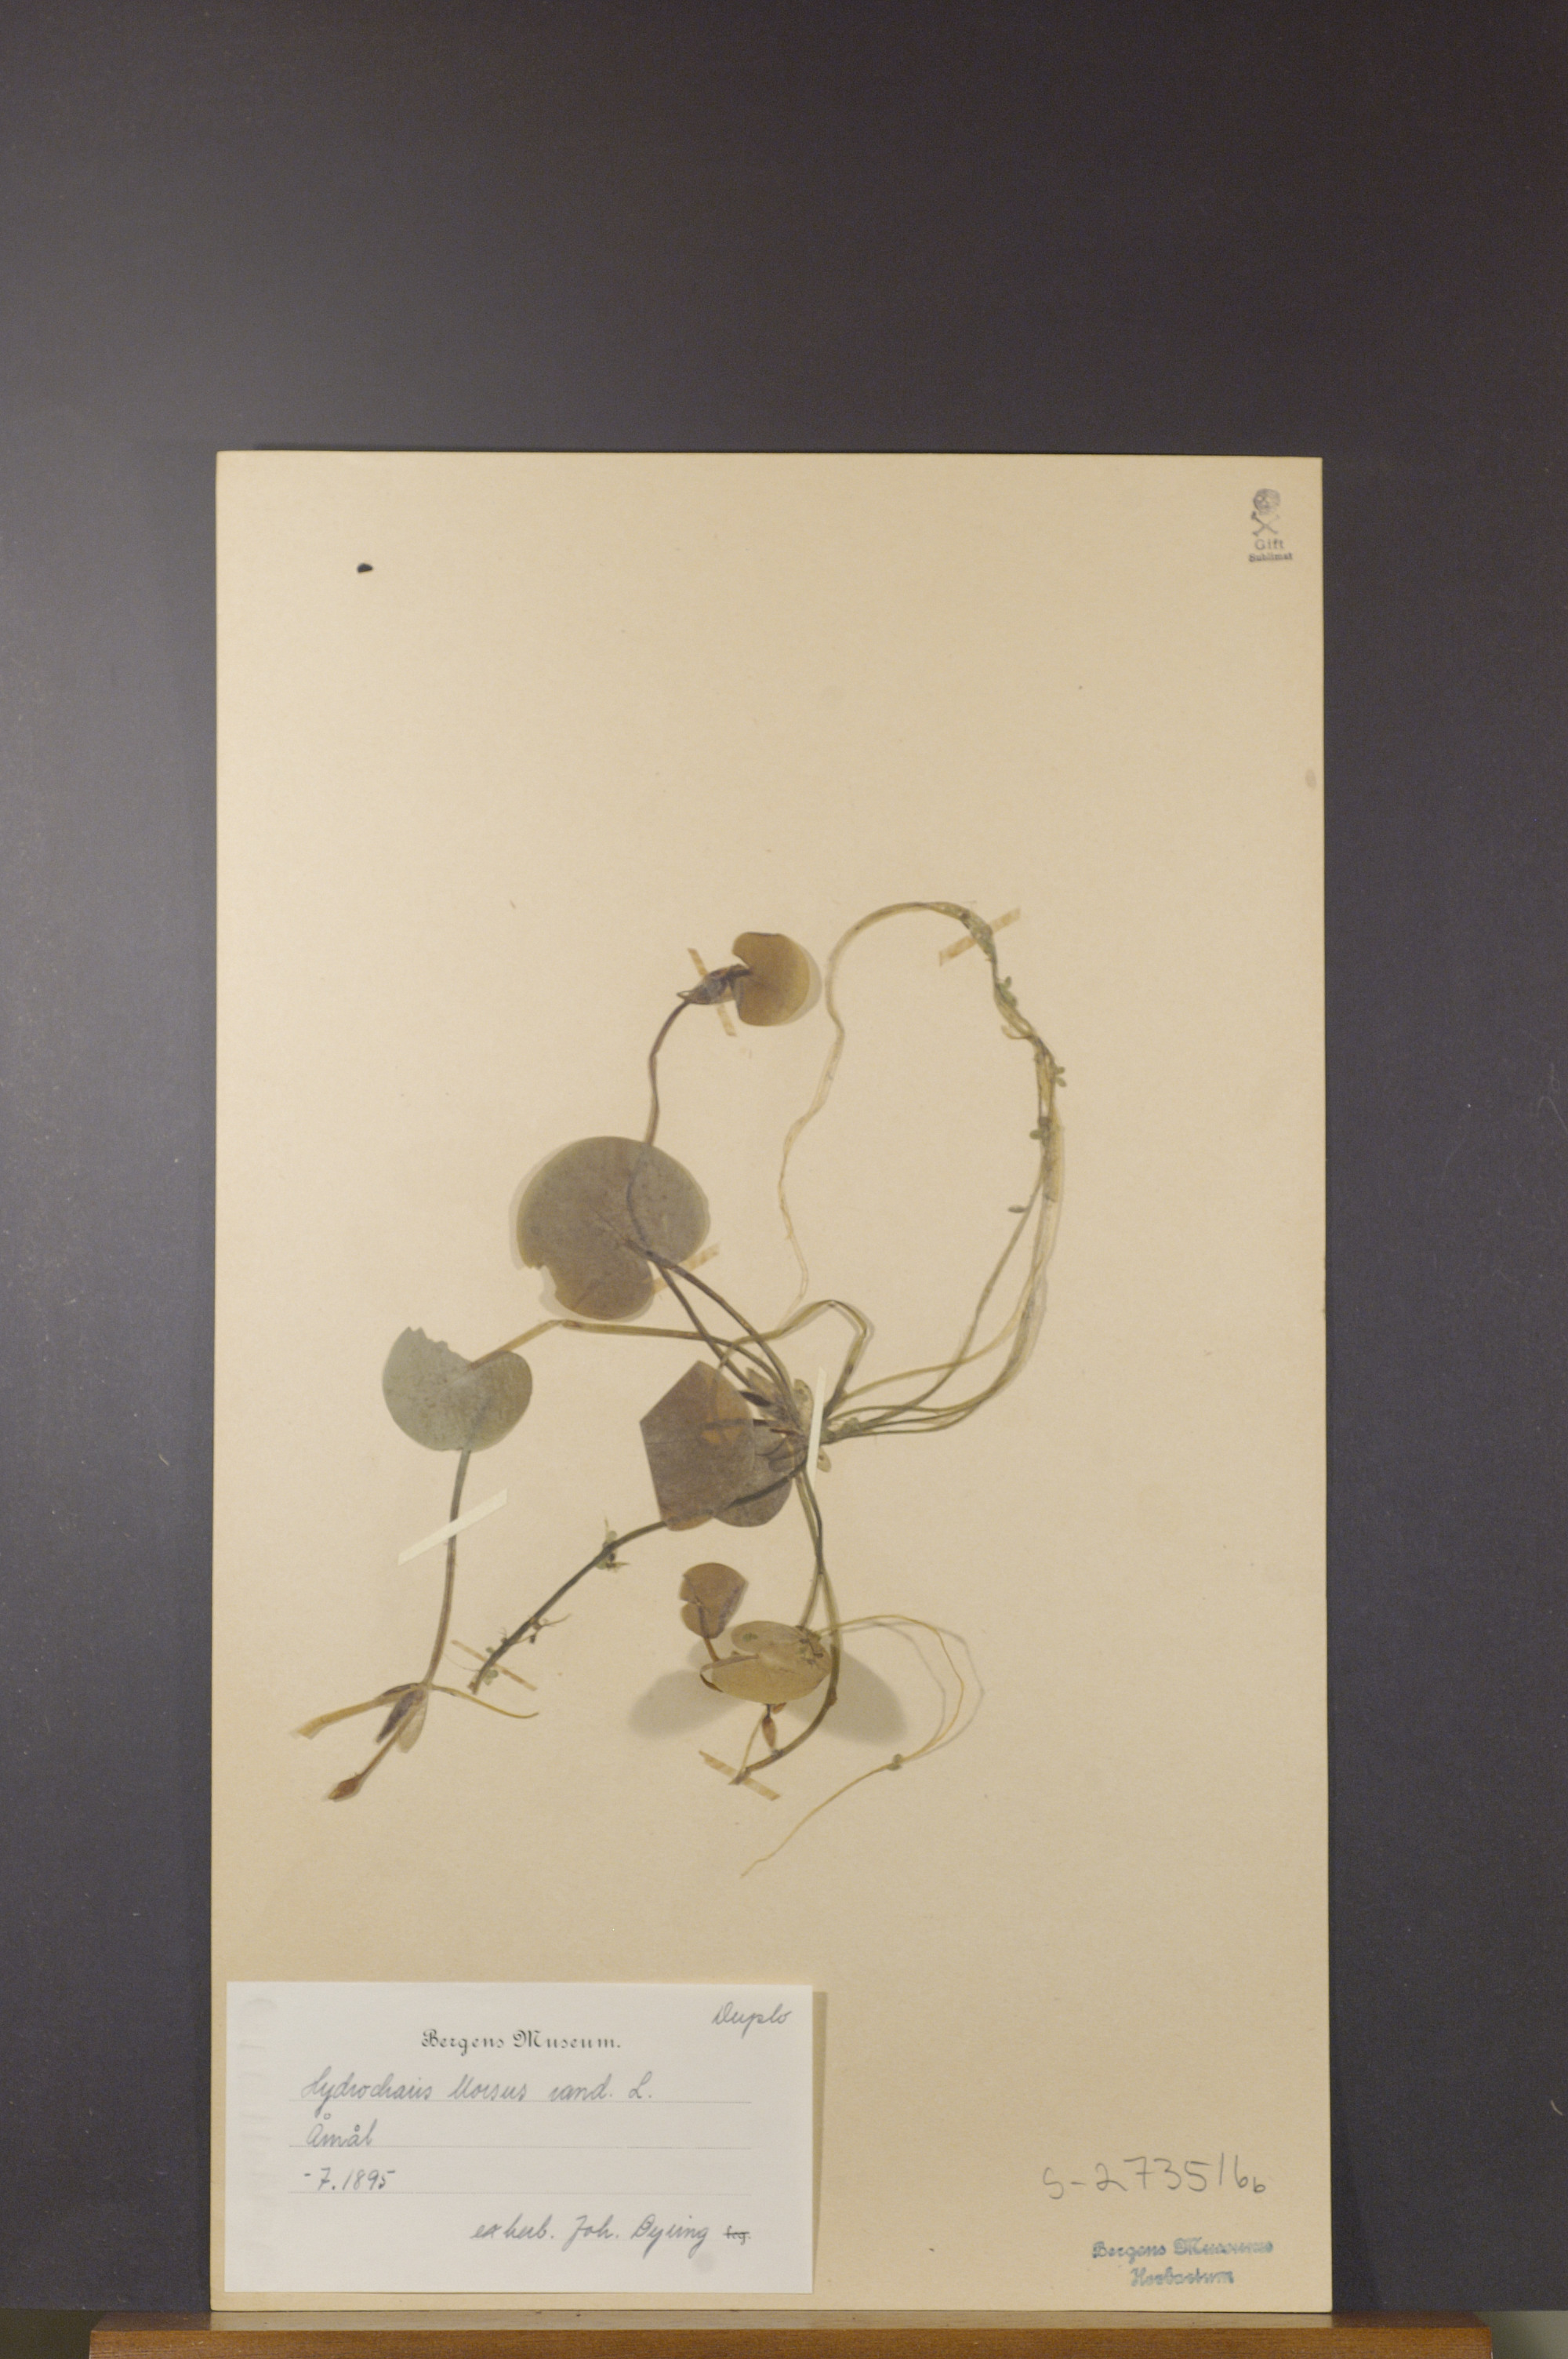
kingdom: Plantae
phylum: Tracheophyta
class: Liliopsida
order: Alismatales
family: Hydrocharitaceae
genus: Hydrocharis
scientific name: Hydrocharis morsus-ranae
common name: Frogbit
